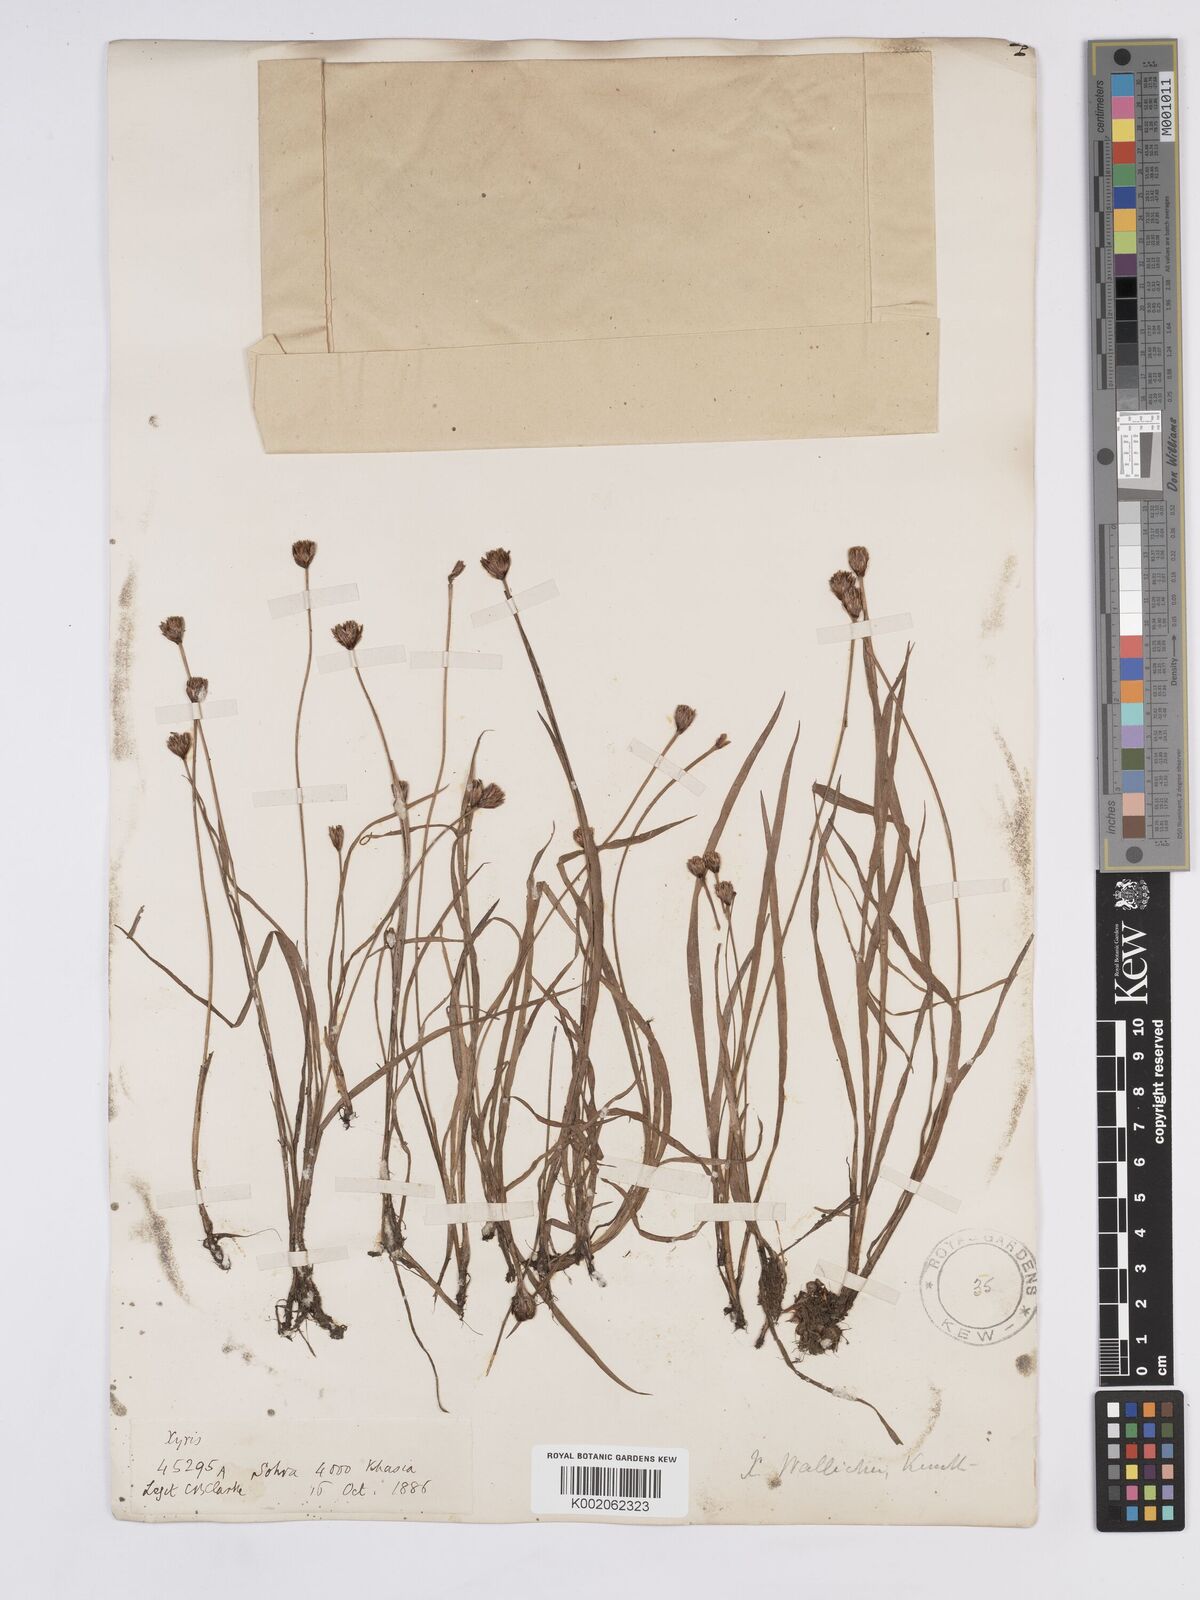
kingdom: Plantae
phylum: Tracheophyta
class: Liliopsida
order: Poales
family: Xyridaceae
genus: Xyris
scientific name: Xyris wallichii
